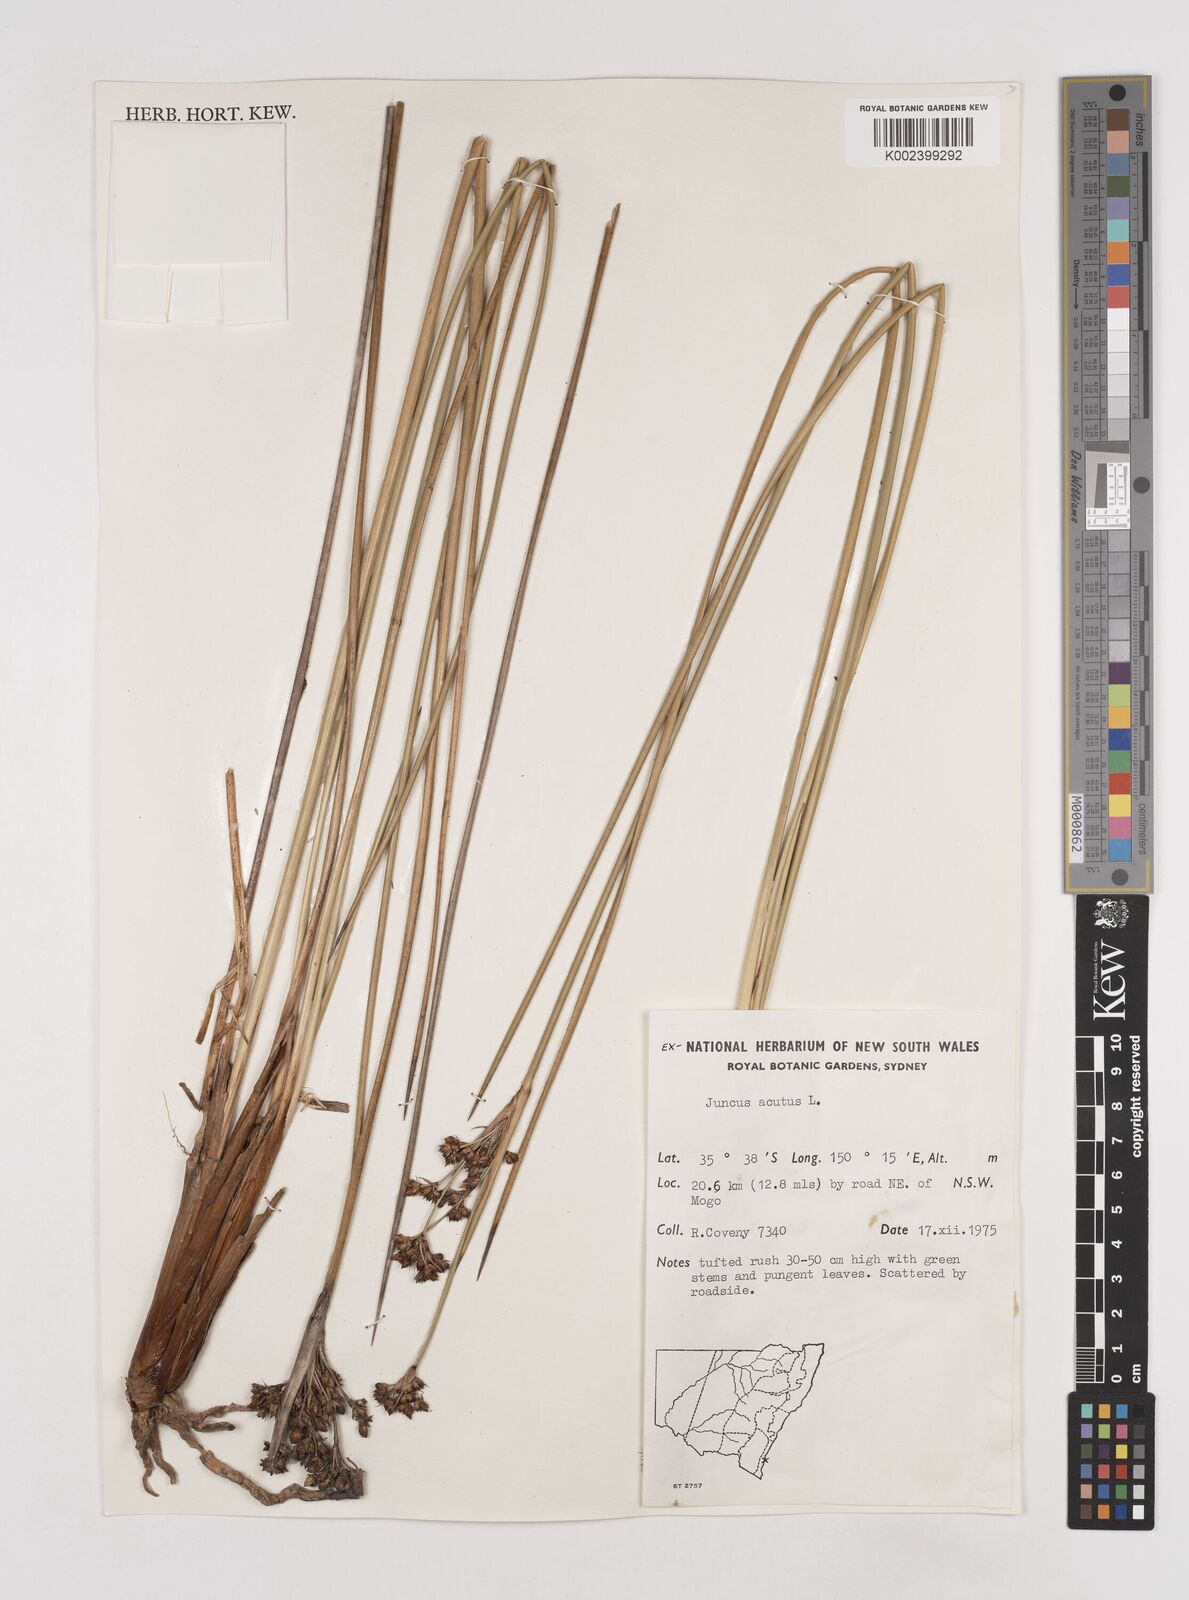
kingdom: Plantae
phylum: Tracheophyta
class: Liliopsida
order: Poales
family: Juncaceae
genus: Juncus
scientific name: Juncus acutus
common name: Sharp rush
